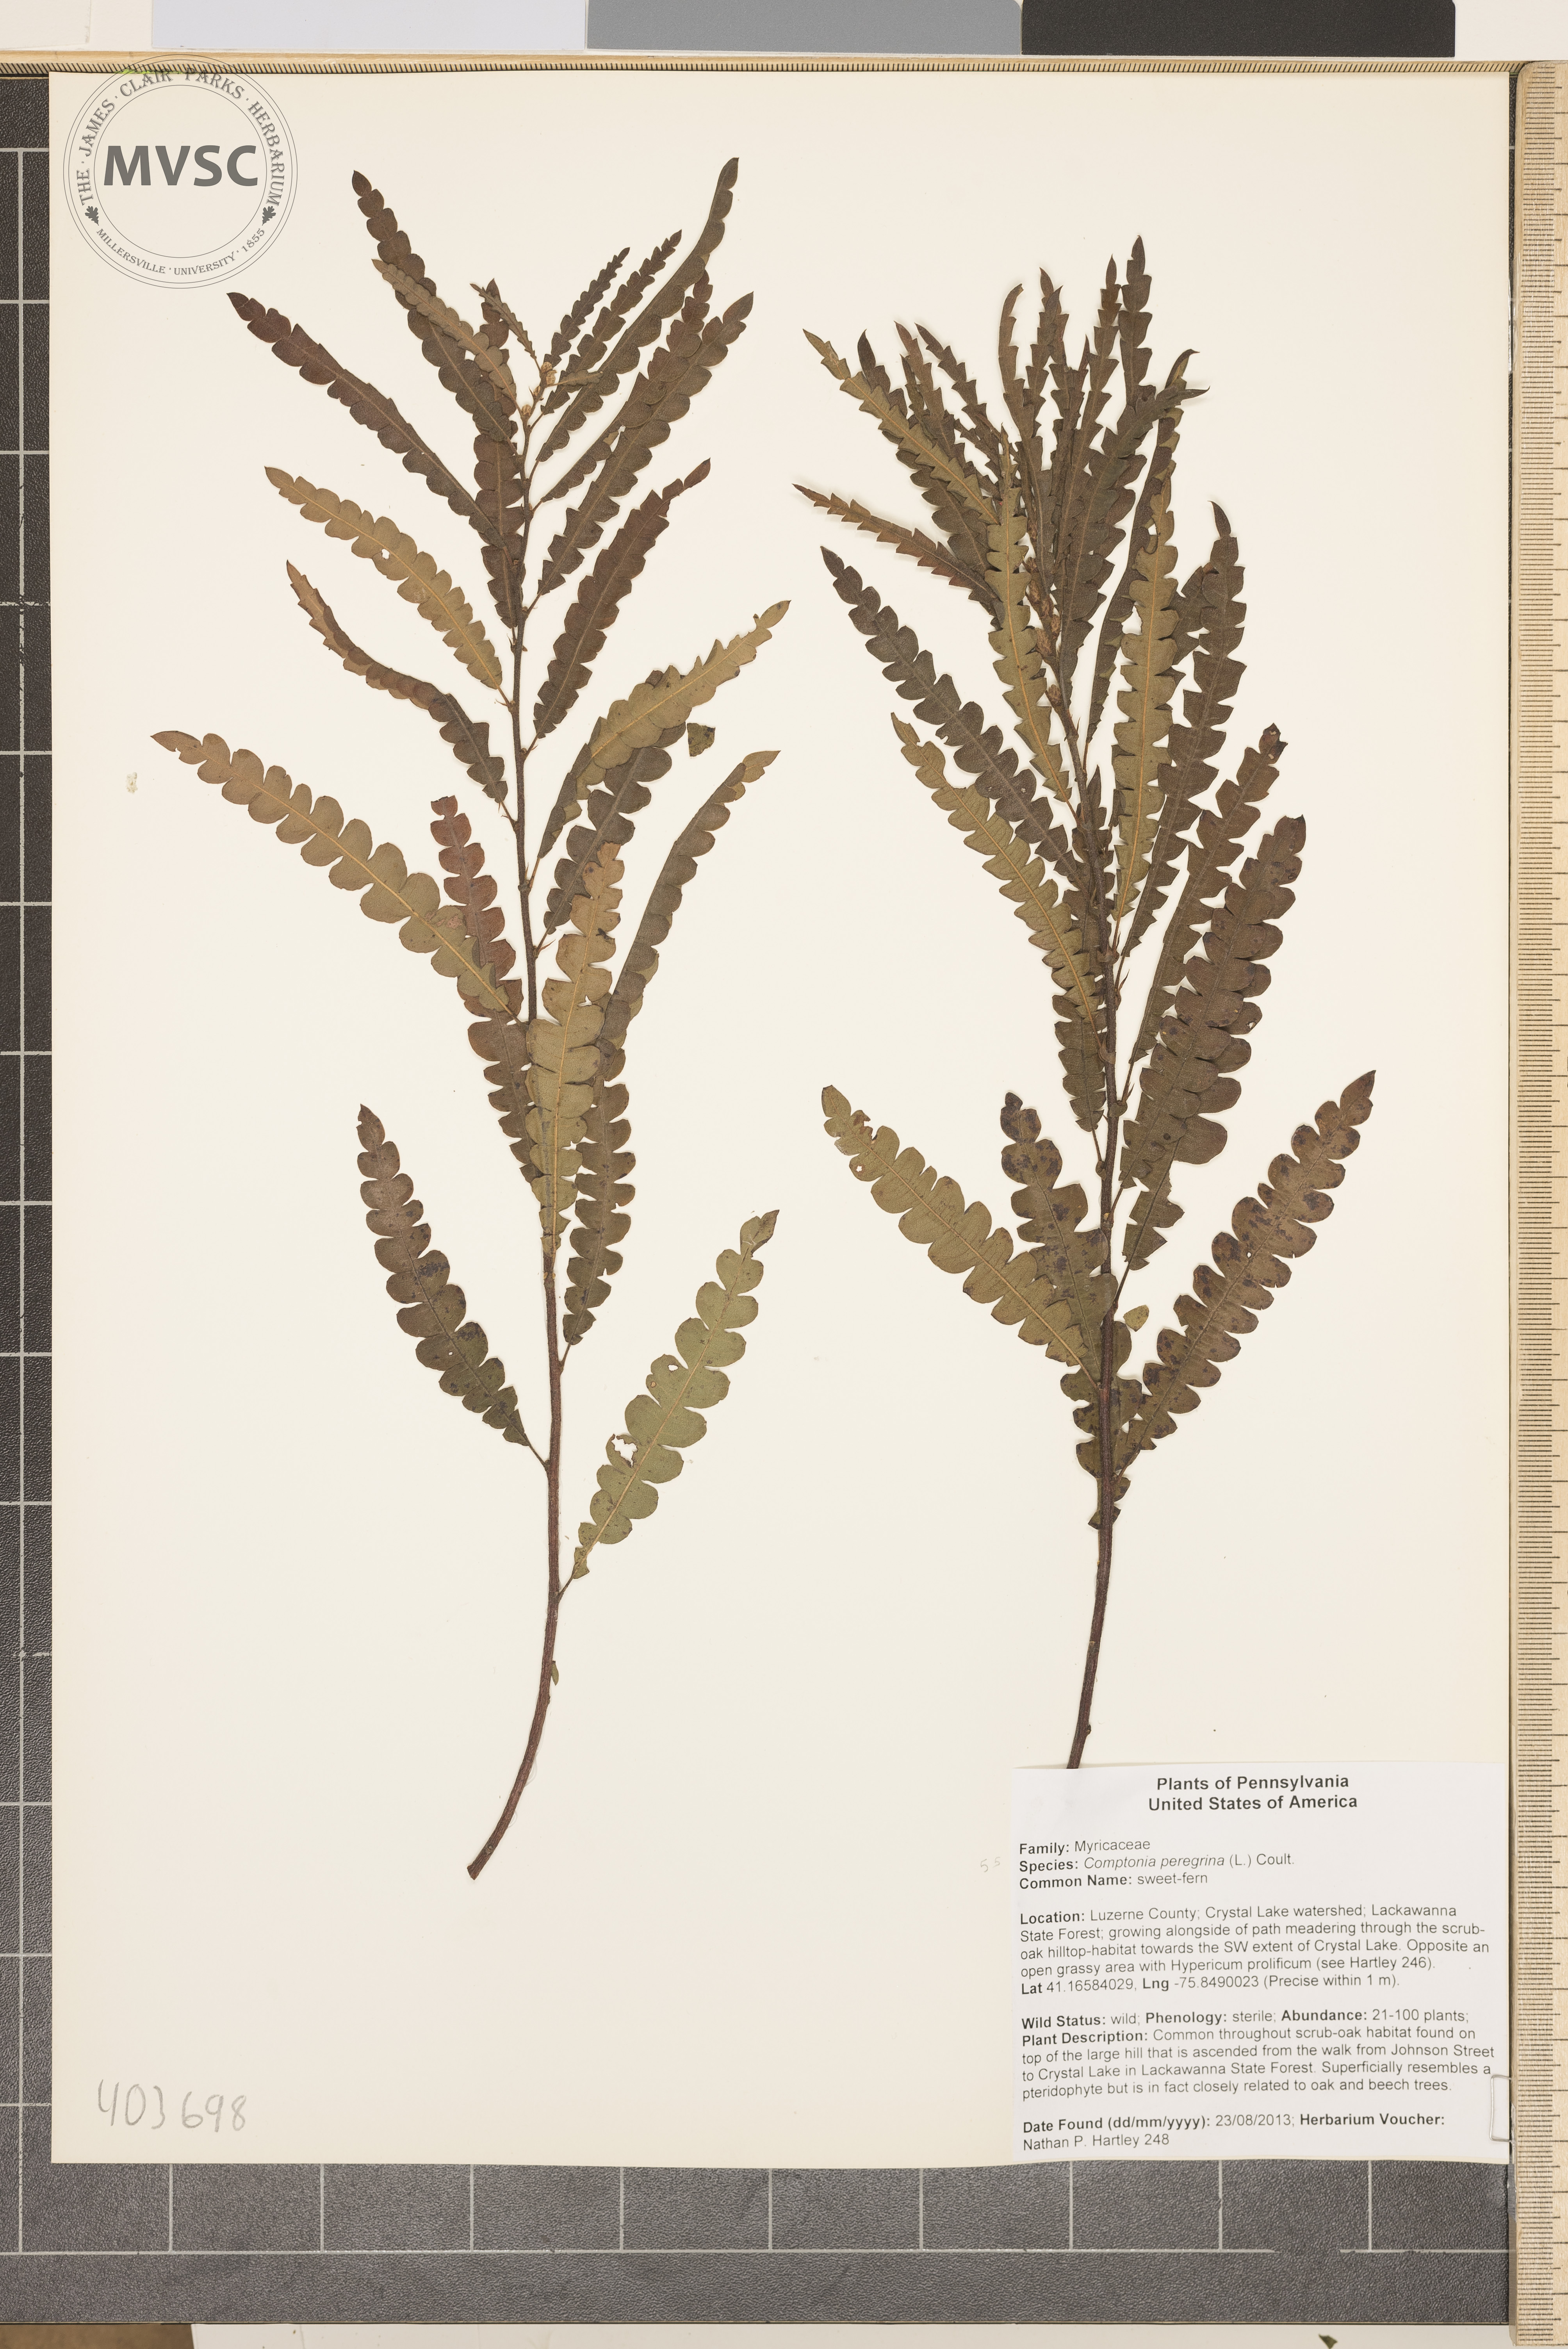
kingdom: Plantae
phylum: Tracheophyta
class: Magnoliopsida
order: Fagales
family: Myricaceae
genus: Comptonia
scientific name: Comptonia peregrina
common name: sweet fern
